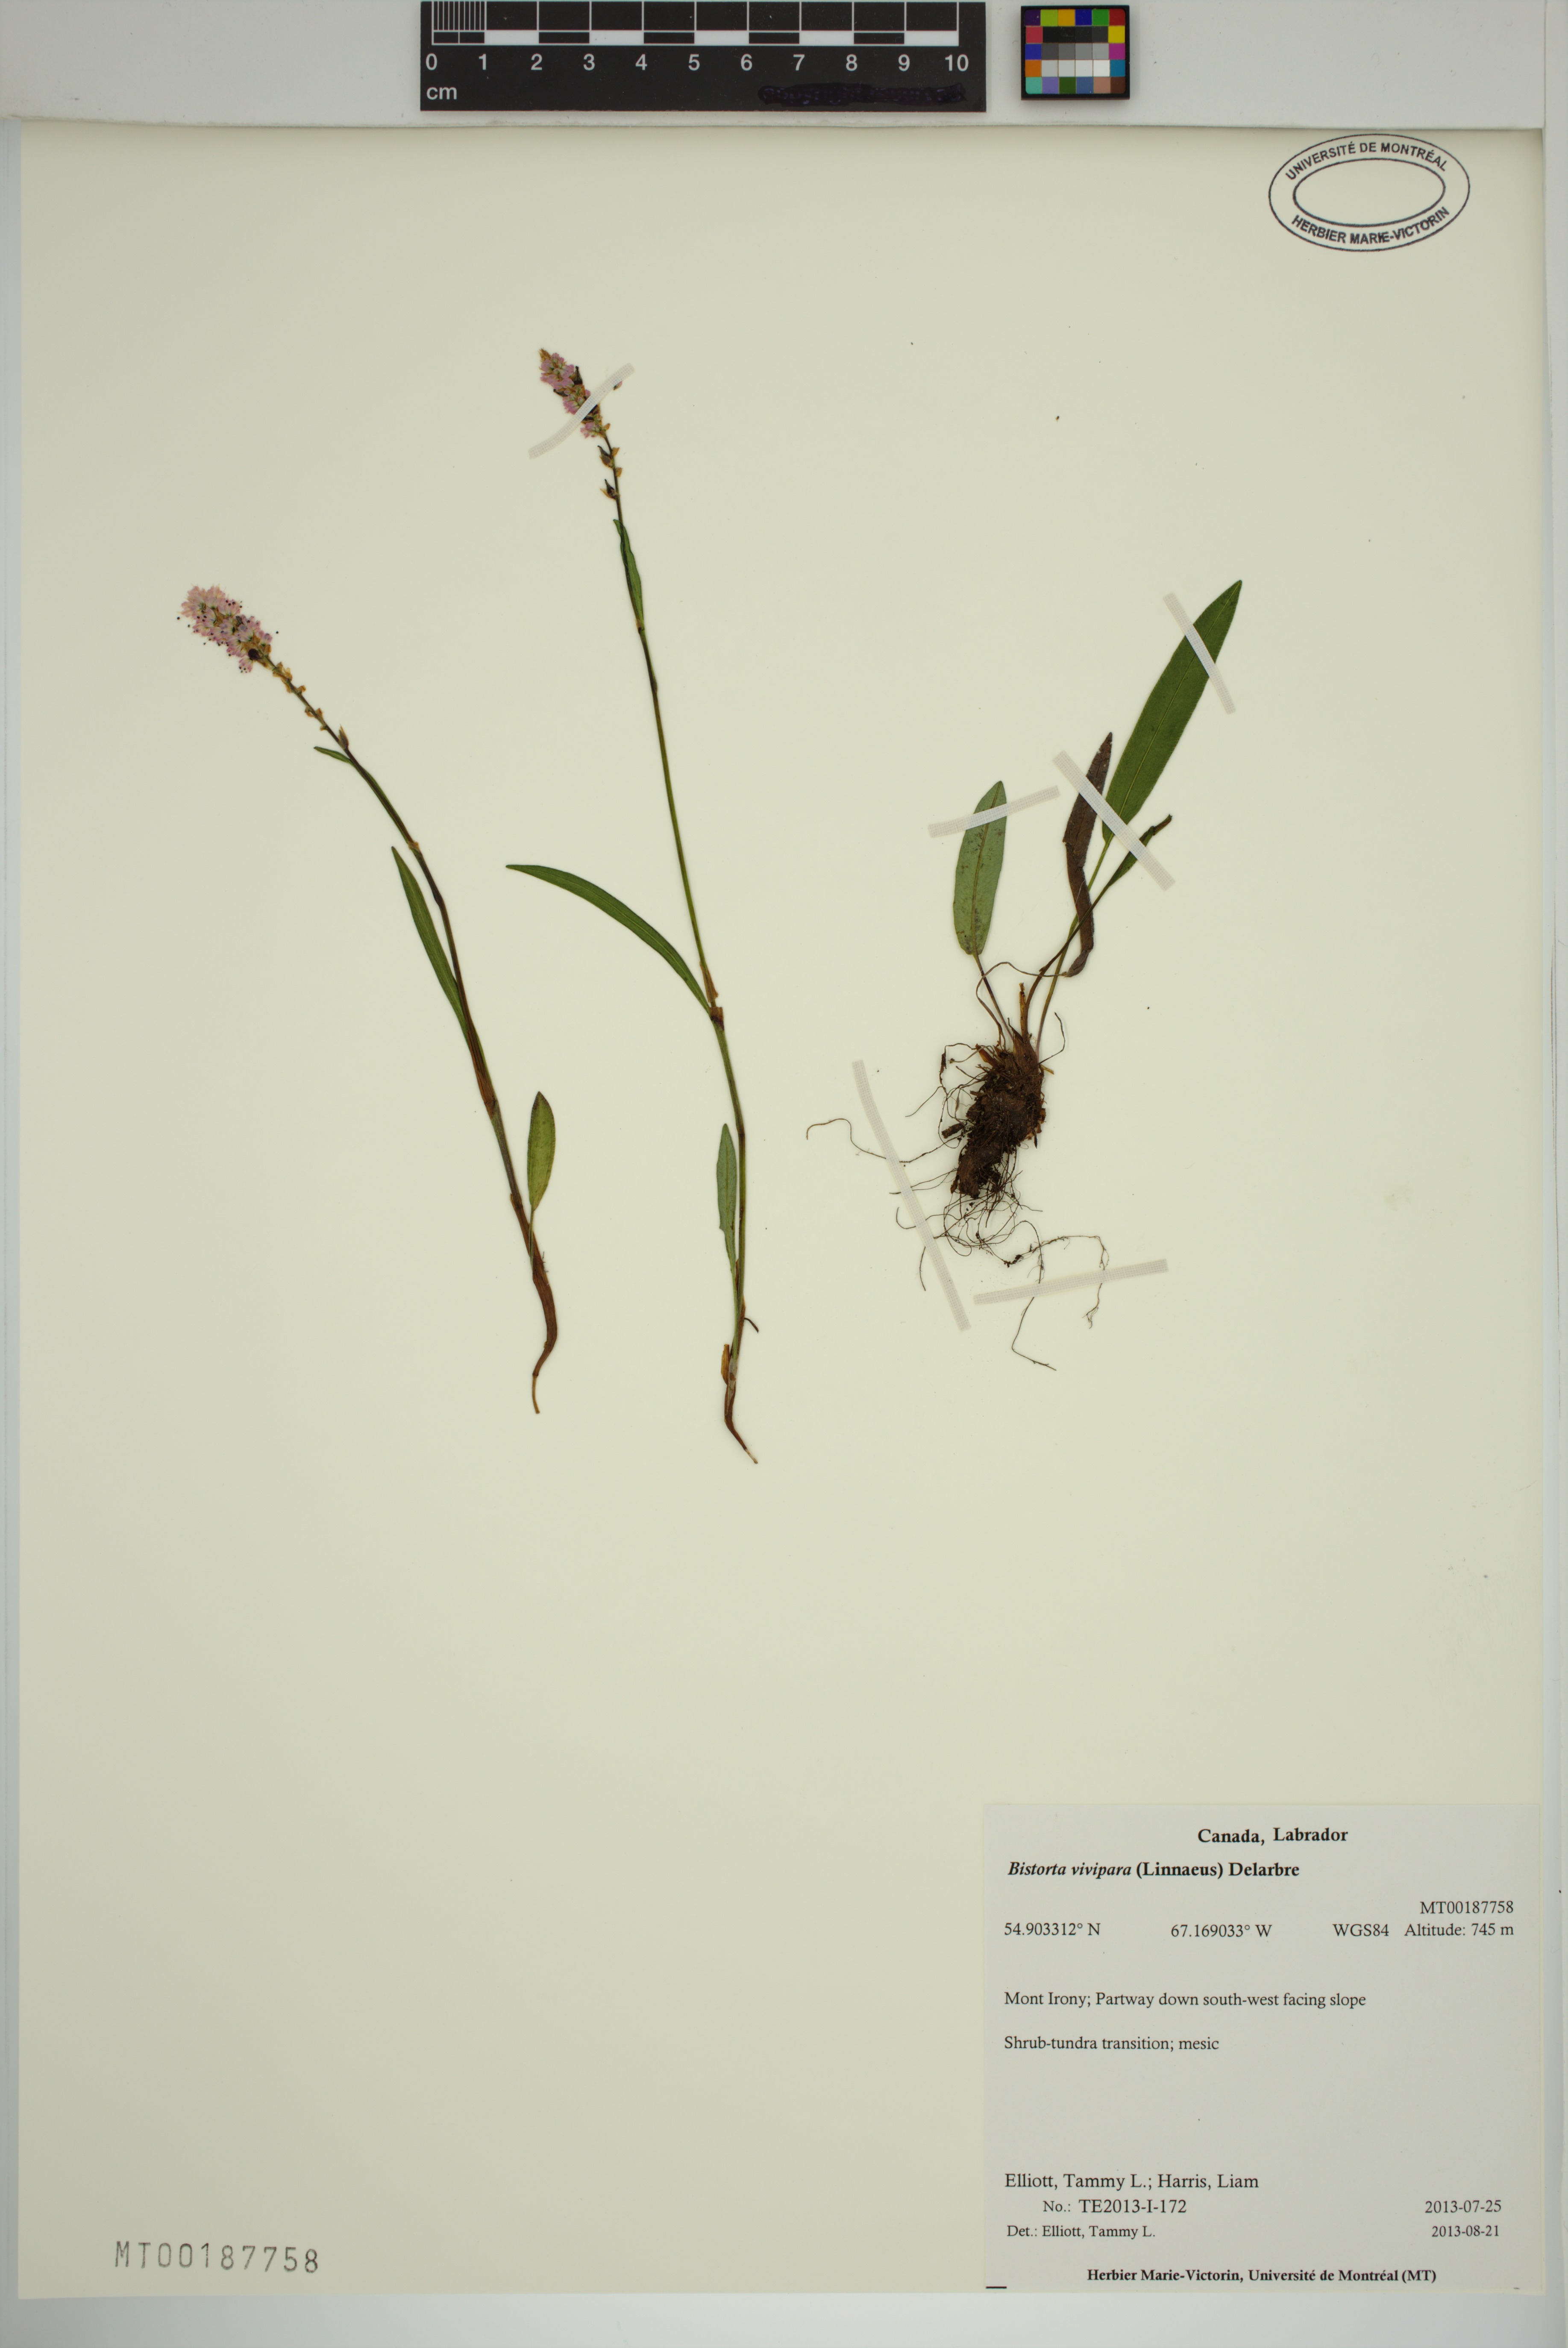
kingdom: Plantae
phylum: Tracheophyta
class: Magnoliopsida
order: Caryophyllales
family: Polygonaceae
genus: Bistorta
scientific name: Bistorta vivipara
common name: Alpine bistort
